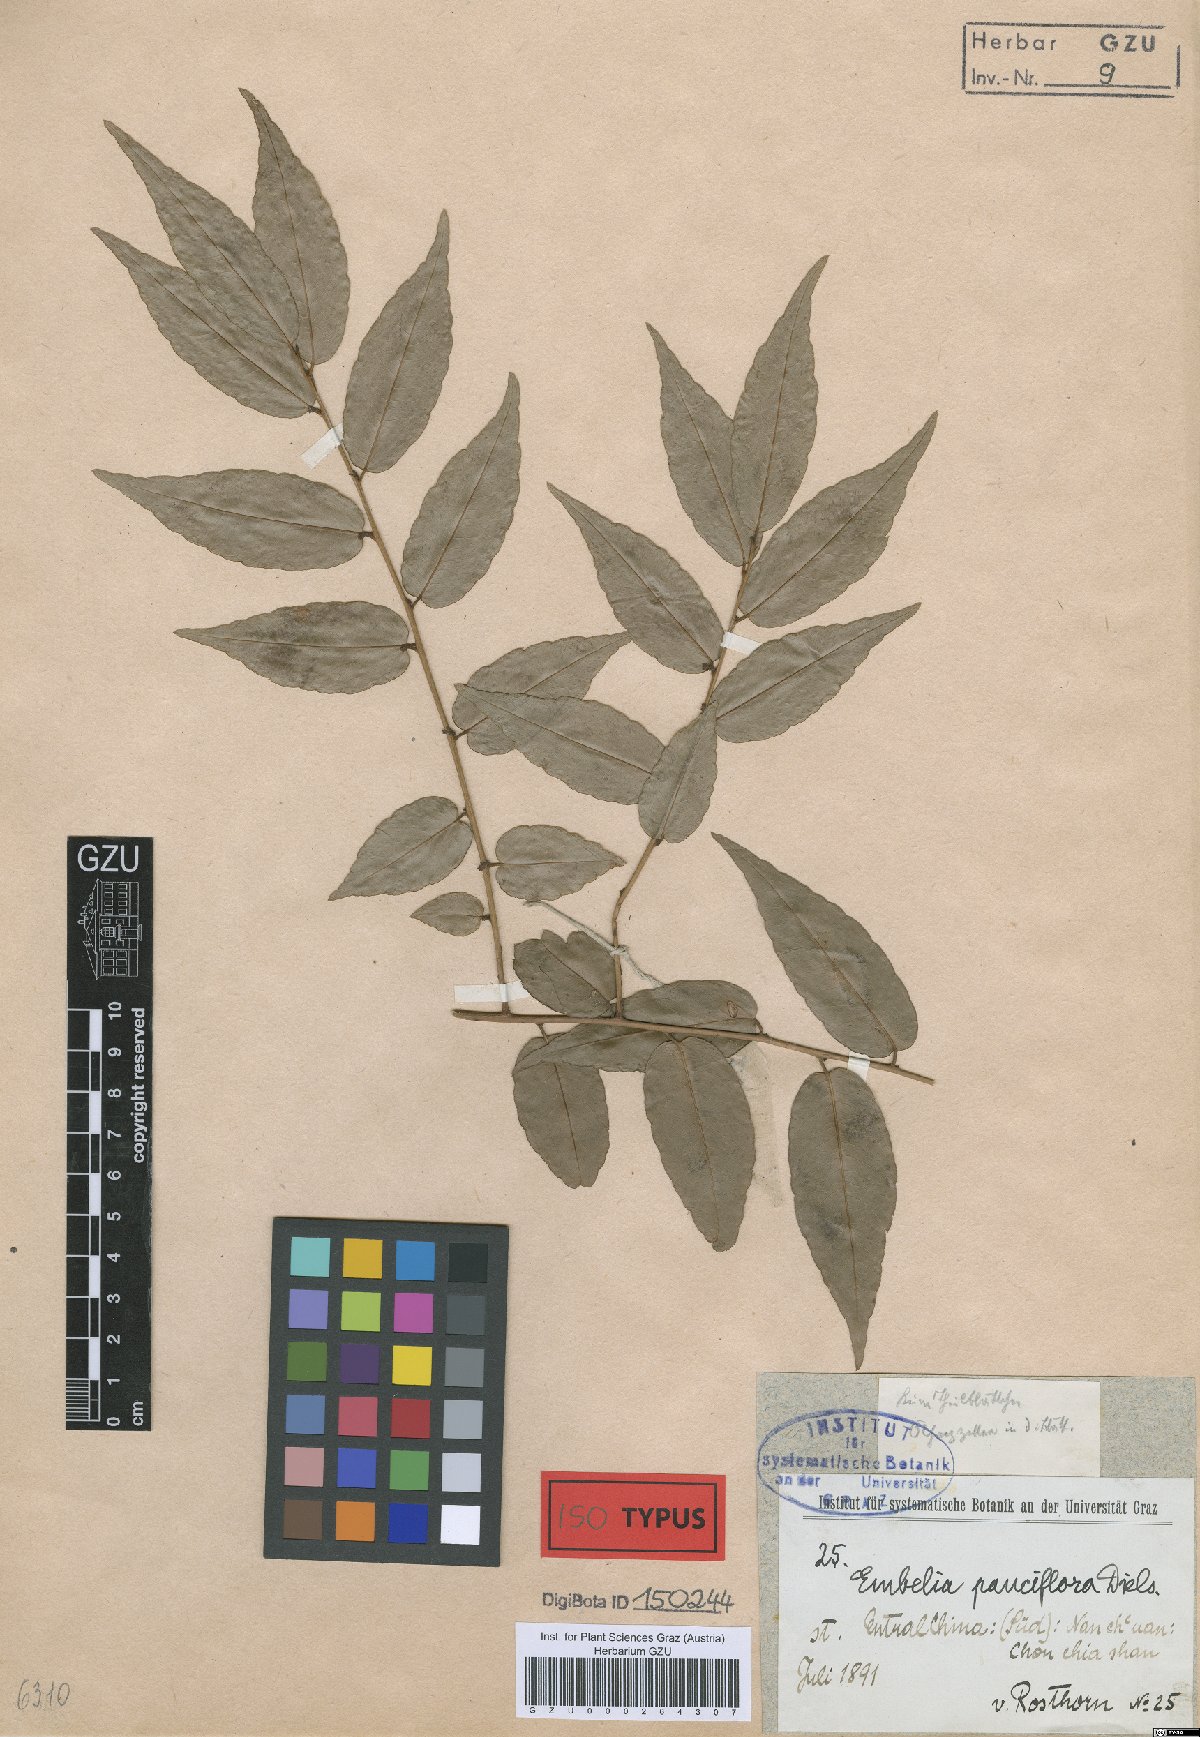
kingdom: Plantae
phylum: Tracheophyta
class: Magnoliopsida
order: Ericales
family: Primulaceae
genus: Embelia
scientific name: Embelia pauciflora
